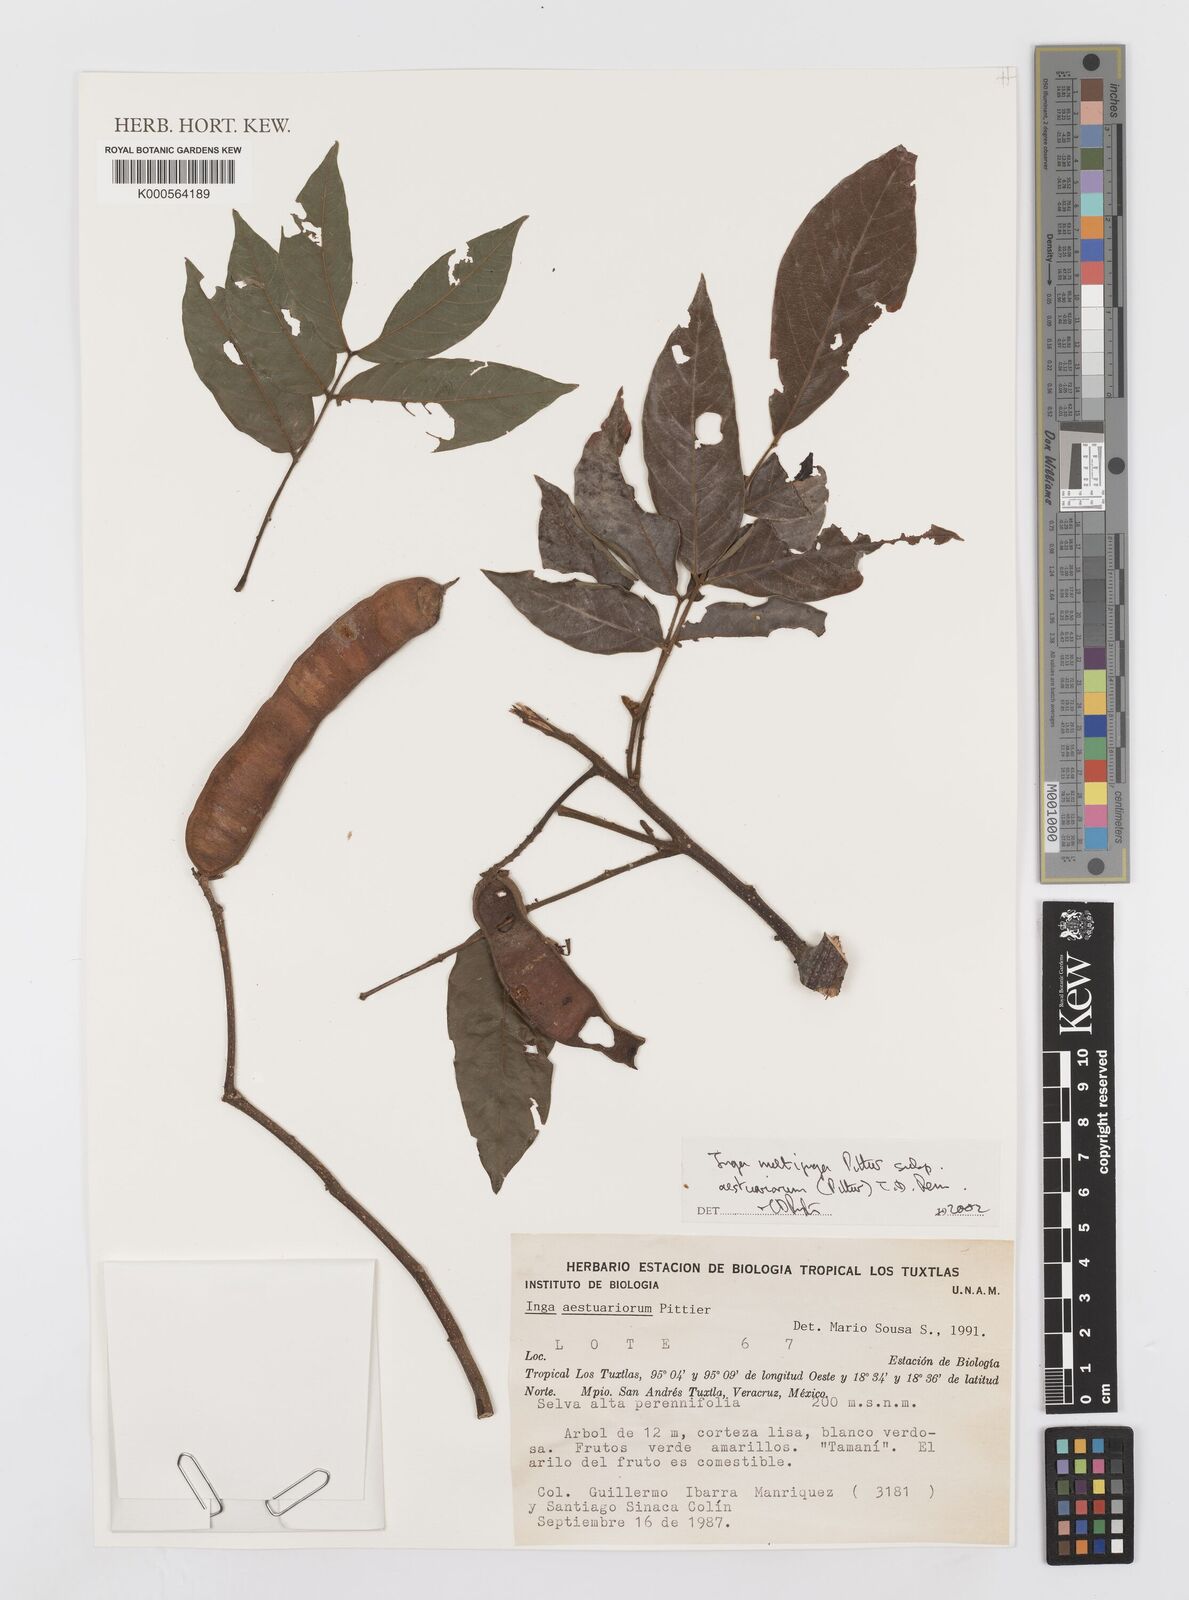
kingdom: Plantae
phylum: Tracheophyta
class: Magnoliopsida
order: Fabales
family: Fabaceae
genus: Inga
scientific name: Inga multijuga
